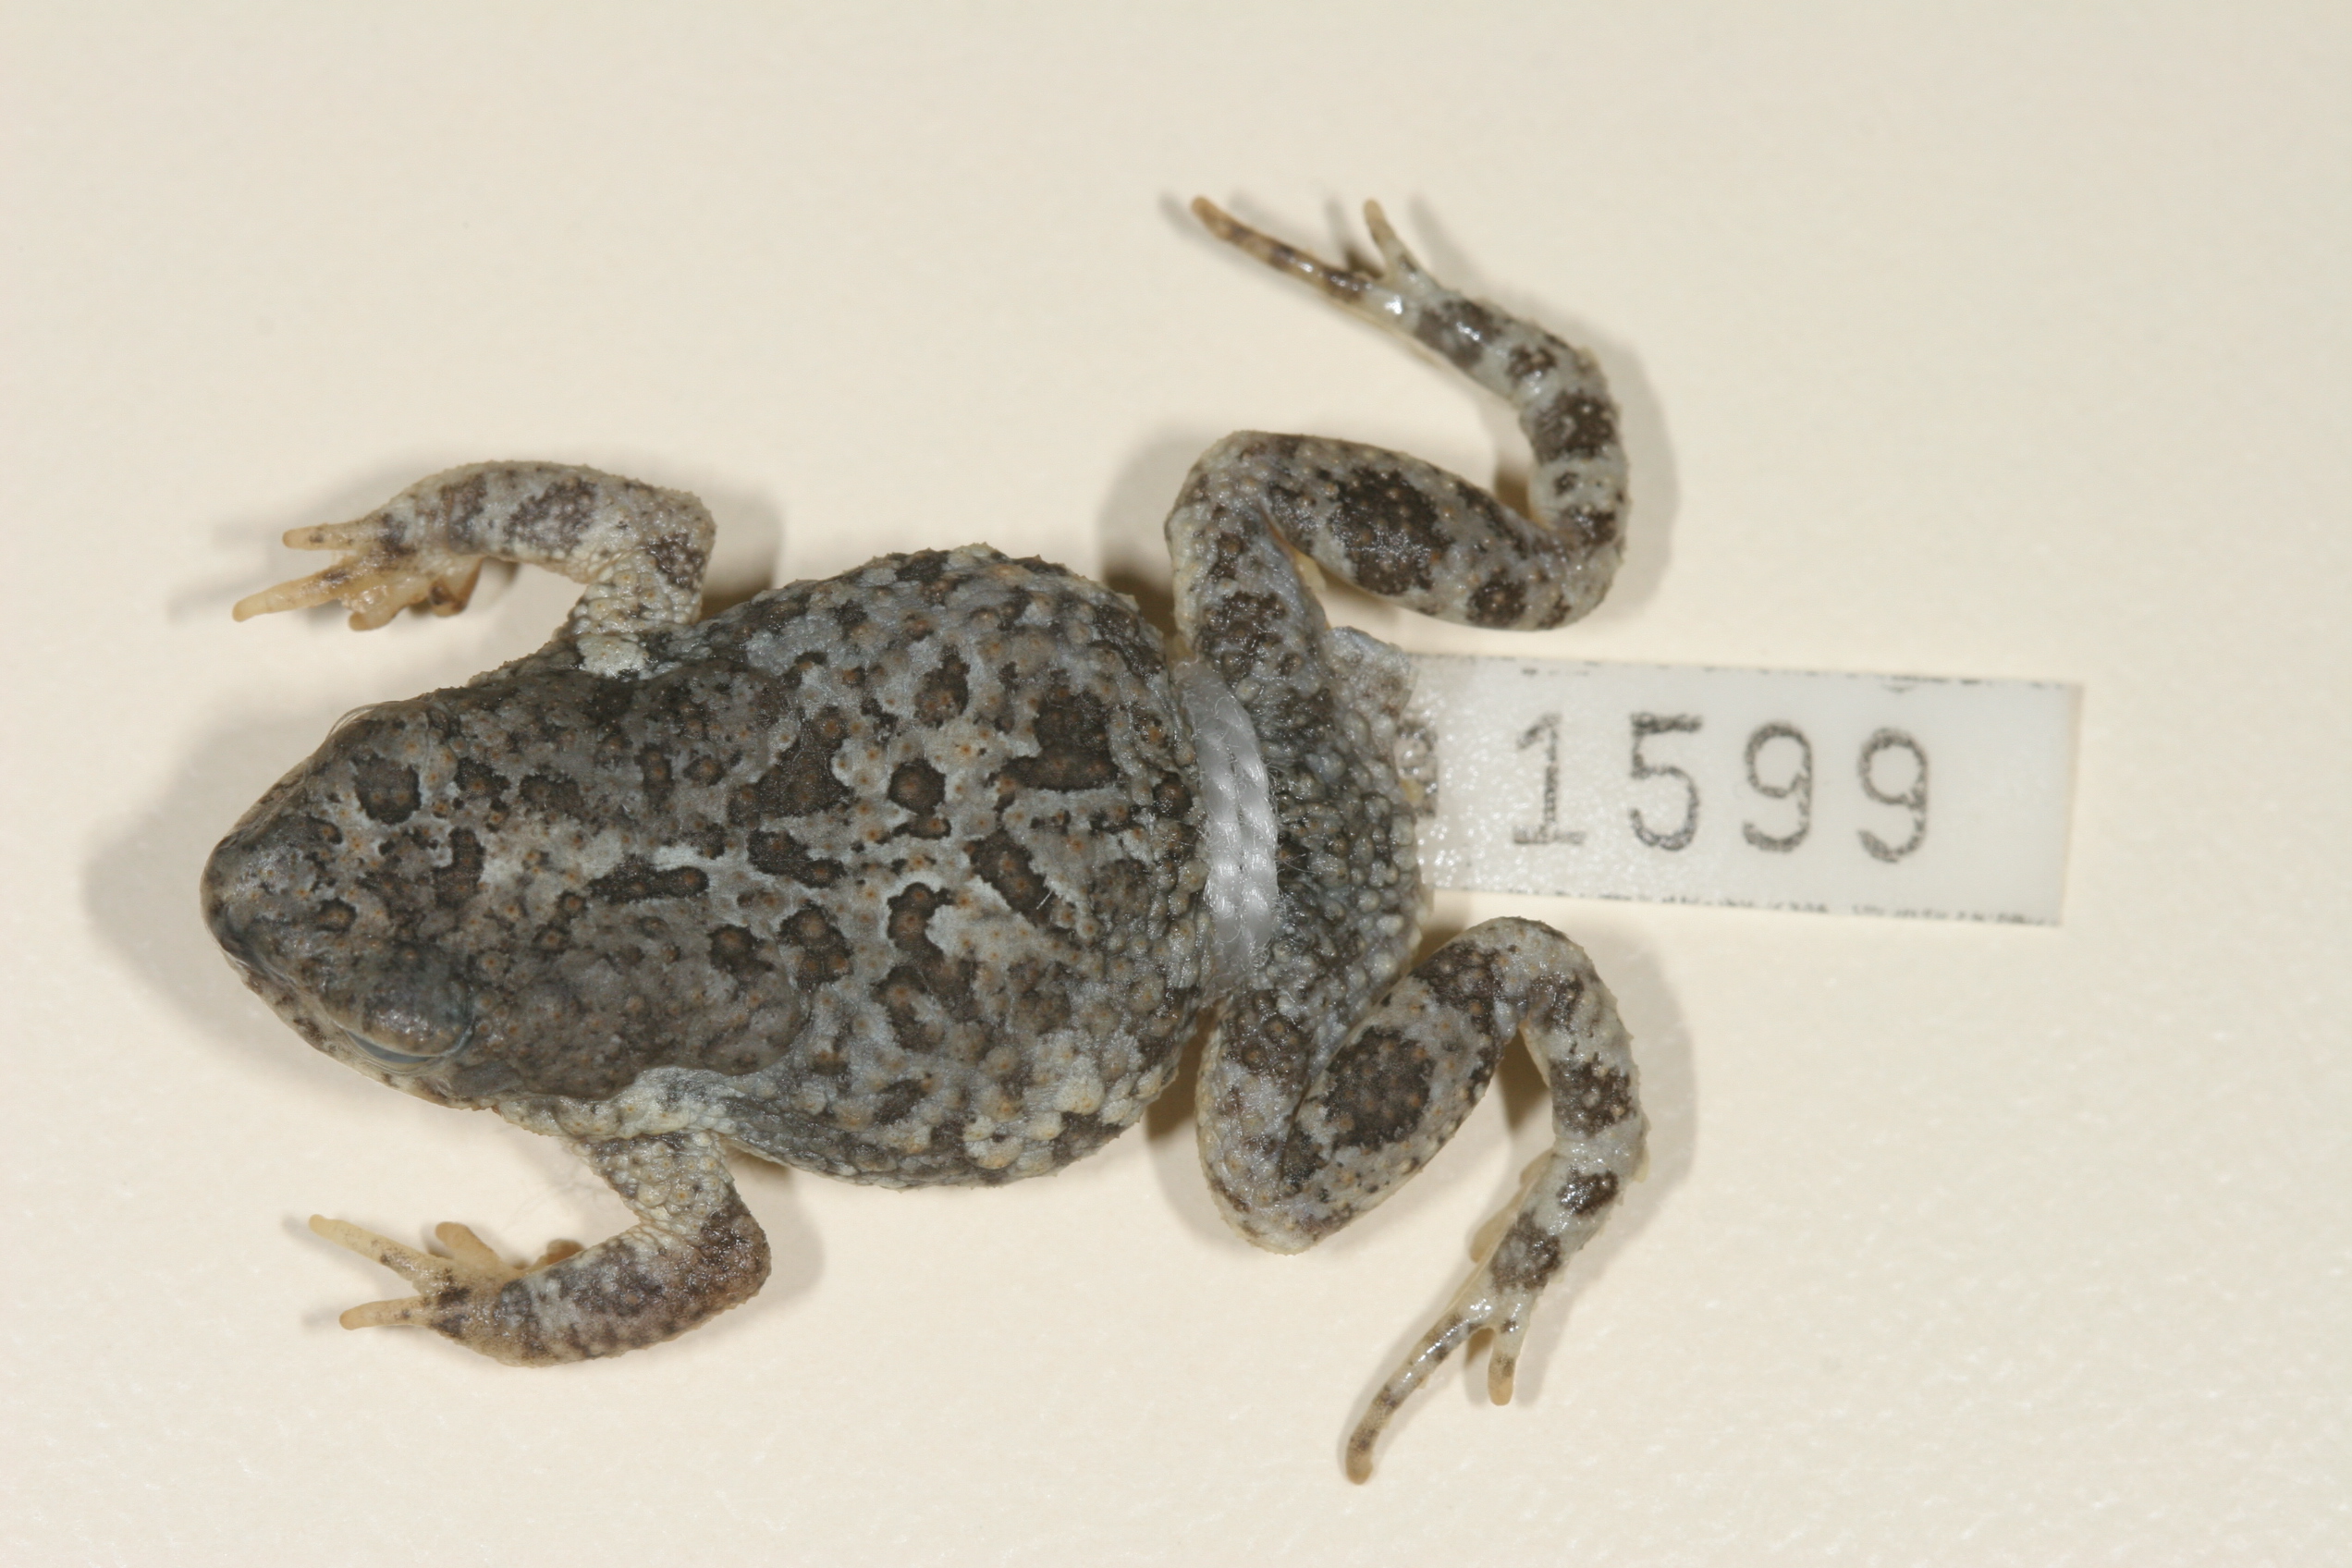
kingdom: Animalia
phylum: Chordata
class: Amphibia
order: Anura
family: Bufonidae
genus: Poyntonophrynus
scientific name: Poyntonophrynus fenoulheti
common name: Fenoulhet's toad
